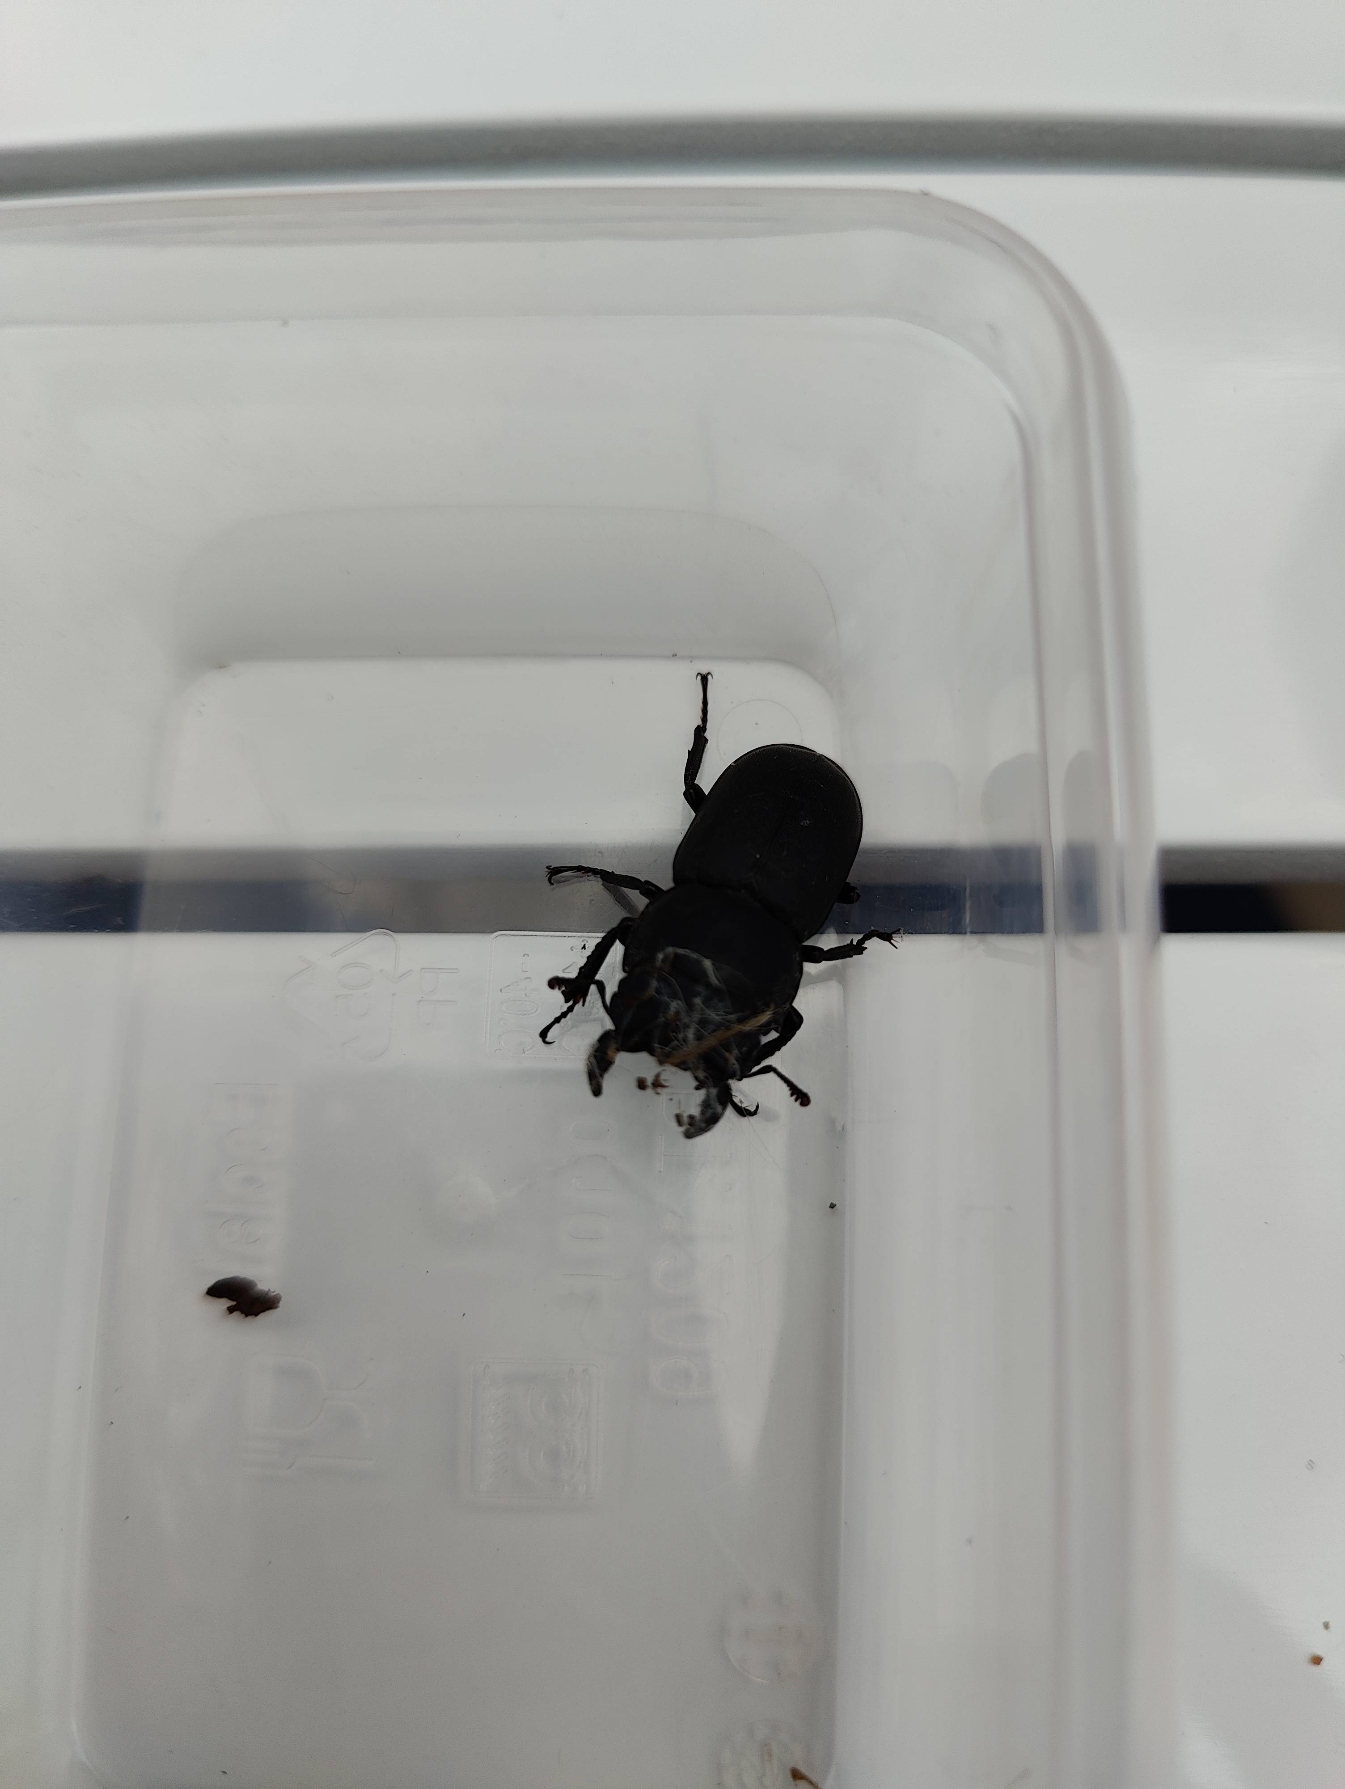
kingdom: Animalia
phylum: Arthropoda
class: Insecta
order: Coleoptera
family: Lucanidae
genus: Dorcus
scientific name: Dorcus parallelipipedus
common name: Bøghjort
